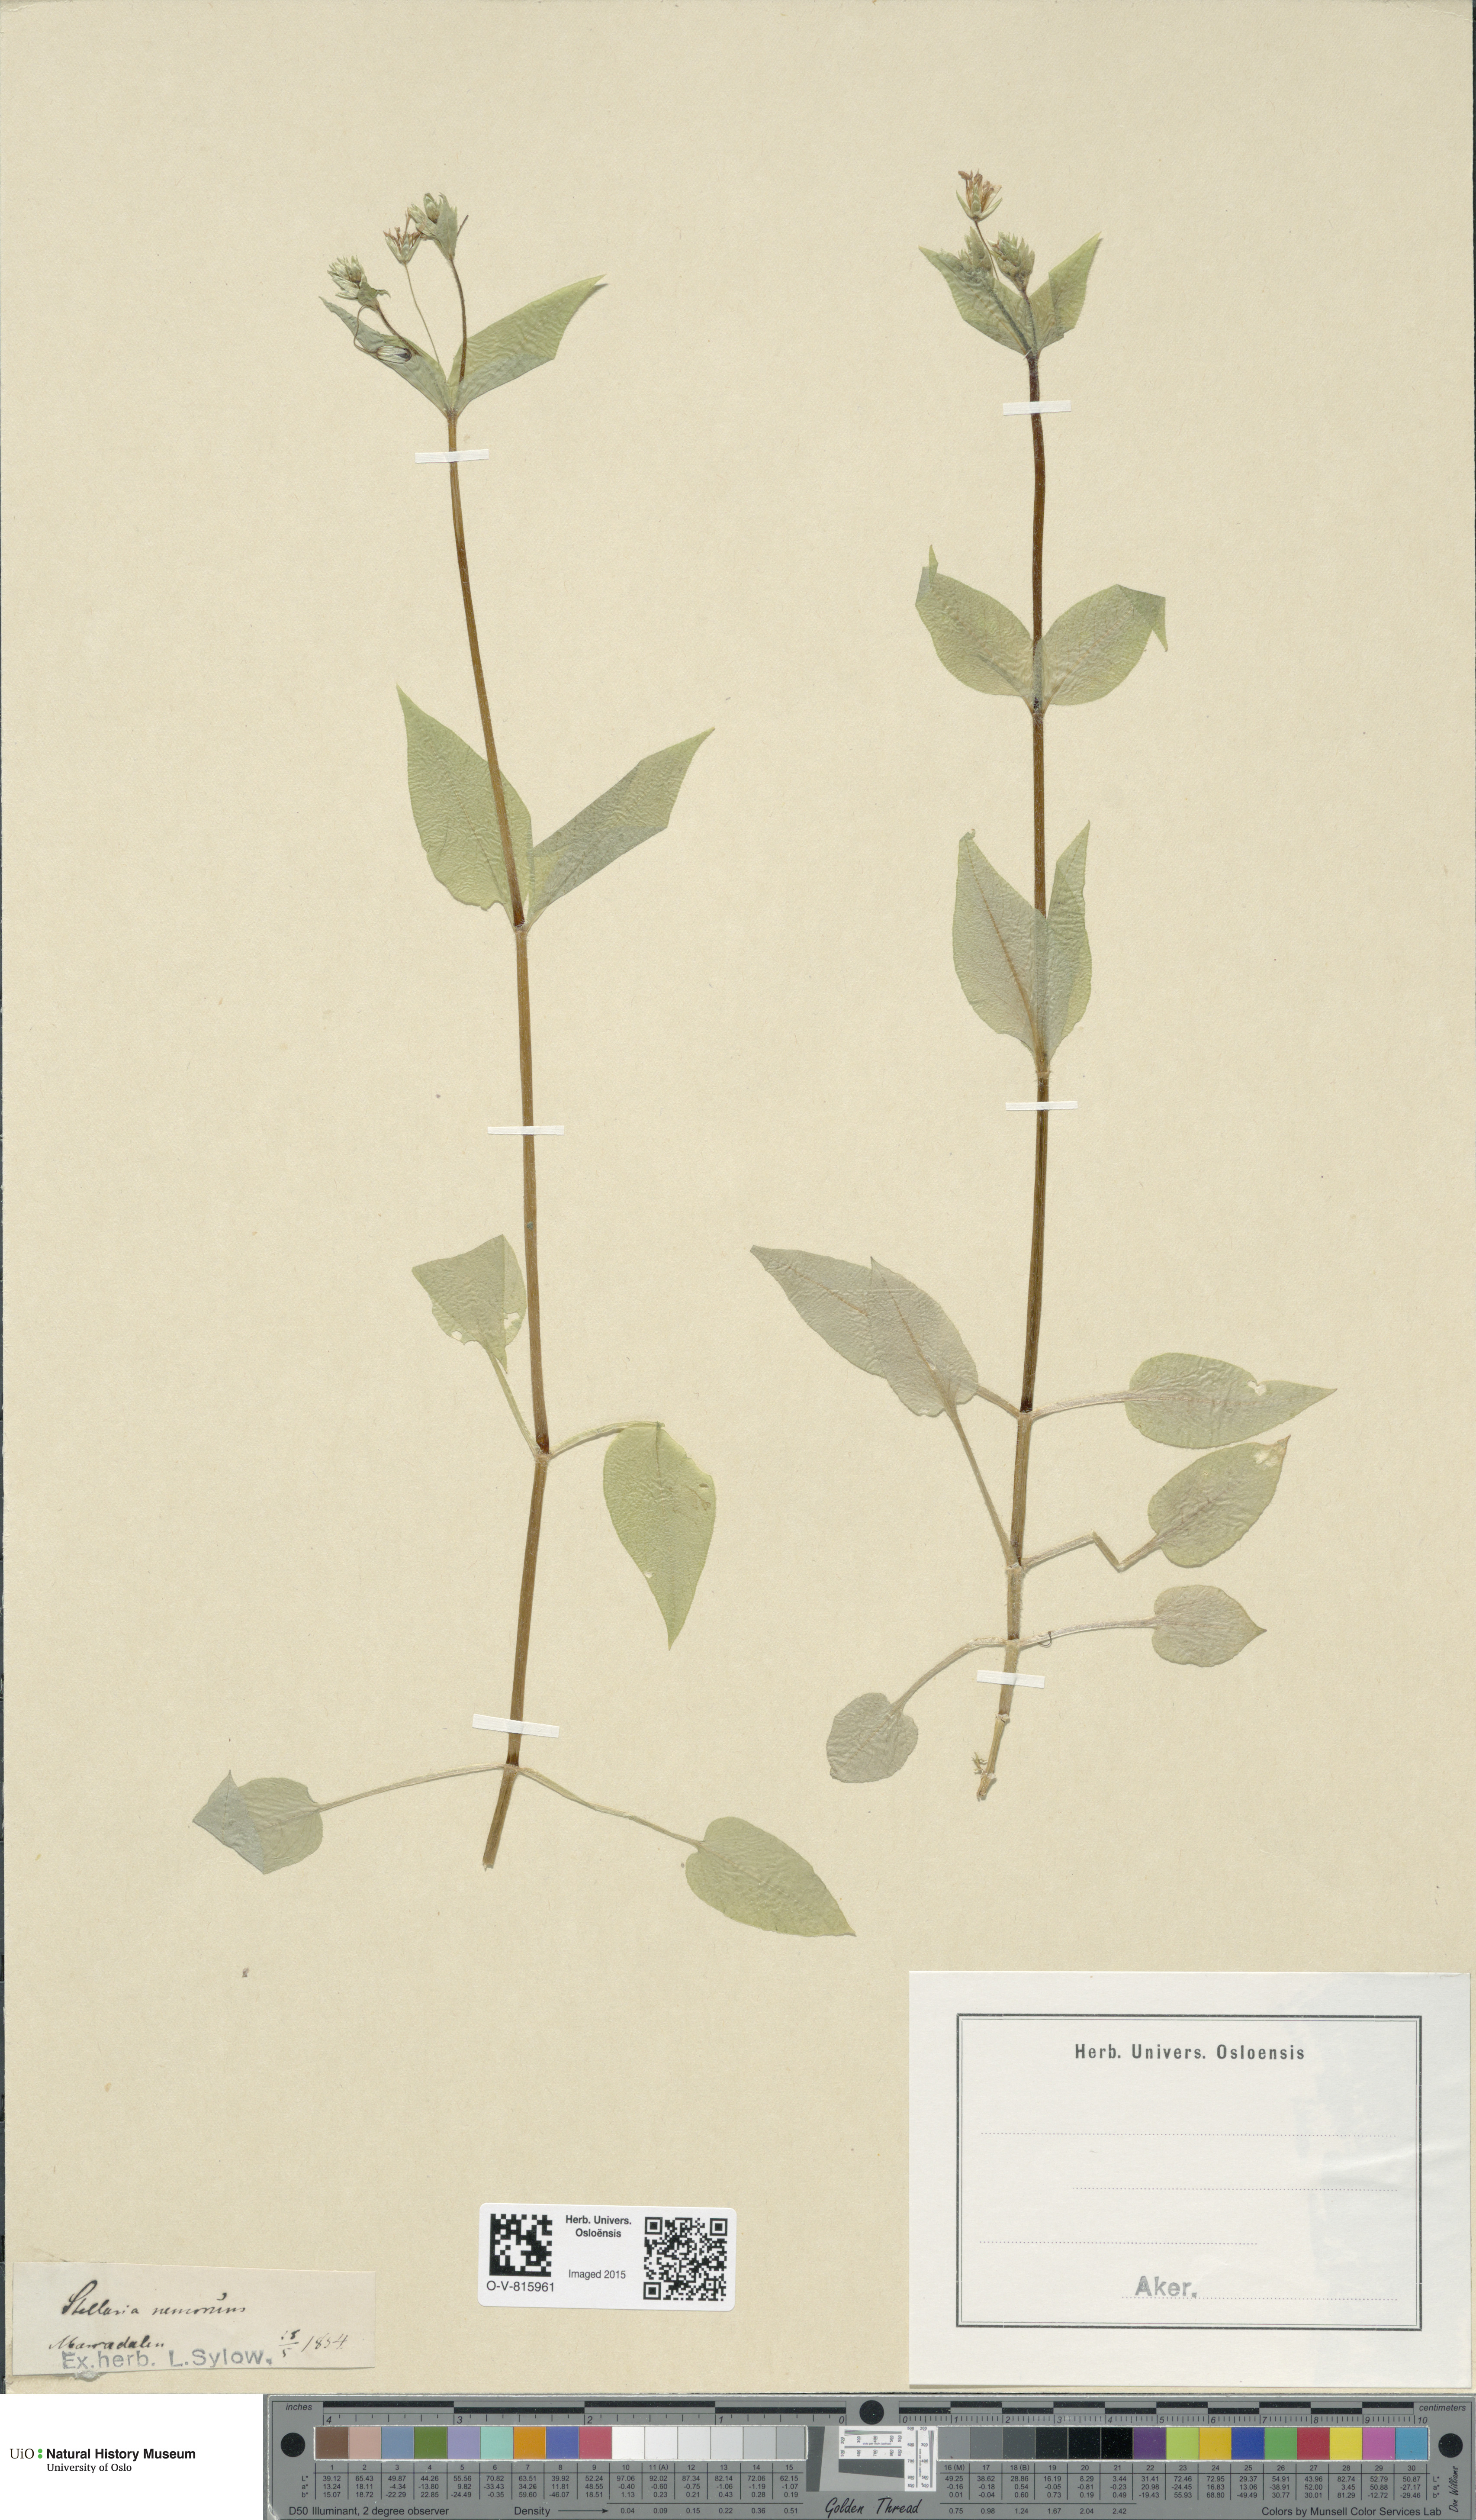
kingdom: Plantae
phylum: Tracheophyta
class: Magnoliopsida
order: Caryophyllales
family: Caryophyllaceae
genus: Stellaria
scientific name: Stellaria nemorum
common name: Wood stitchwort
